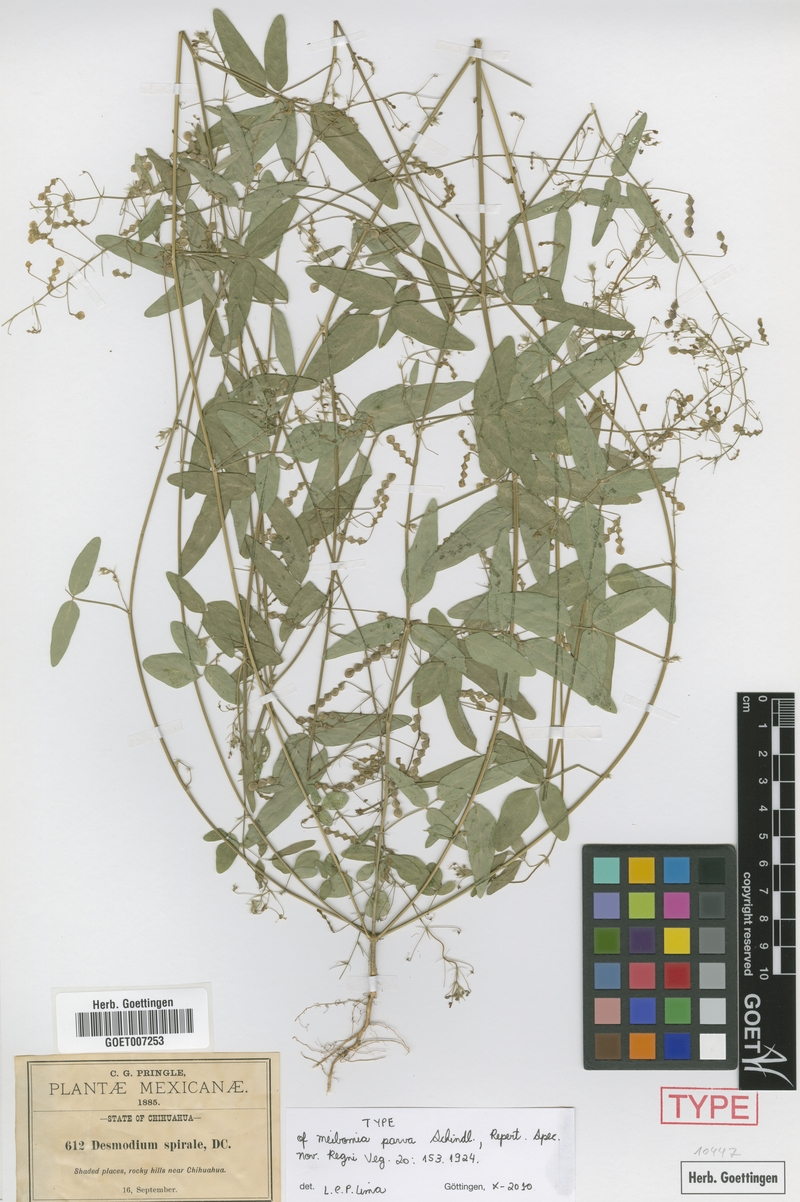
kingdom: Plantae
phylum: Tracheophyta
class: Magnoliopsida
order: Fabales
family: Fabaceae
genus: Desmodium
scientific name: Desmodium procumbens
